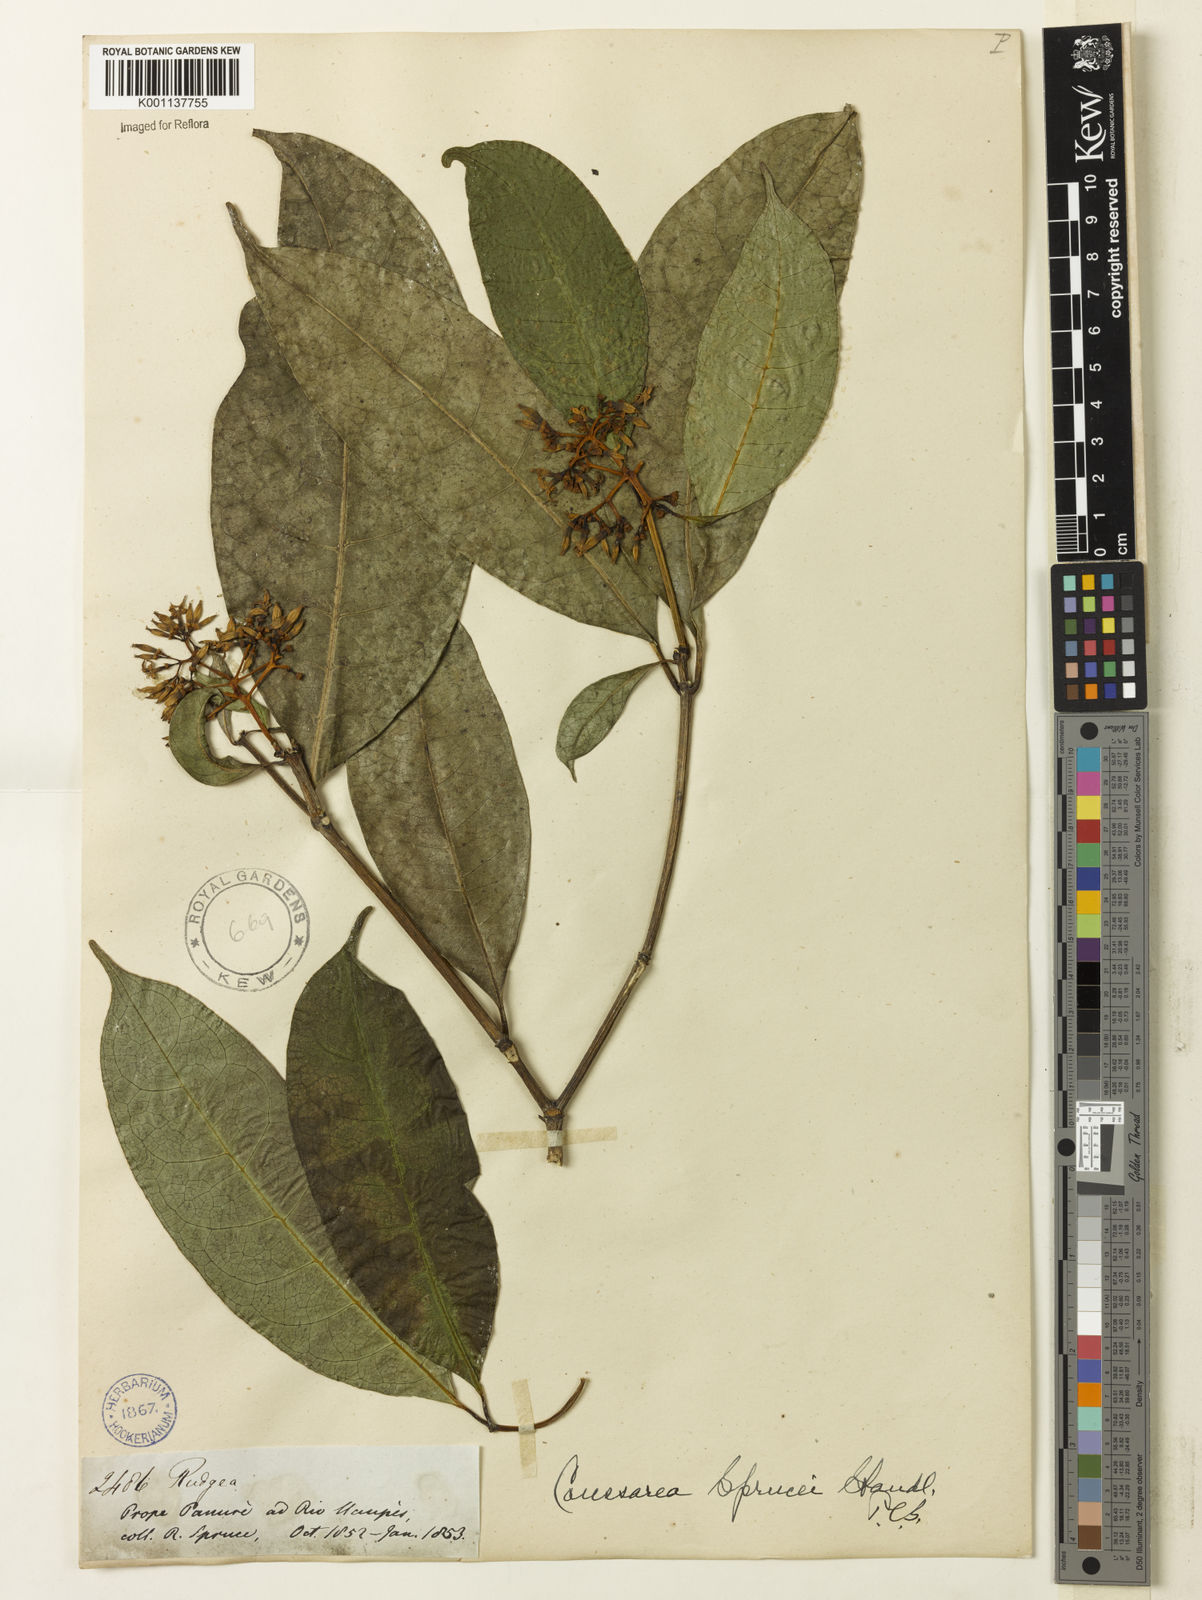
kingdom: Plantae
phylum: Tracheophyta
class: Magnoliopsida
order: Gentianales
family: Rubiaceae
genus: Coussarea
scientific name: Coussarea violacea
